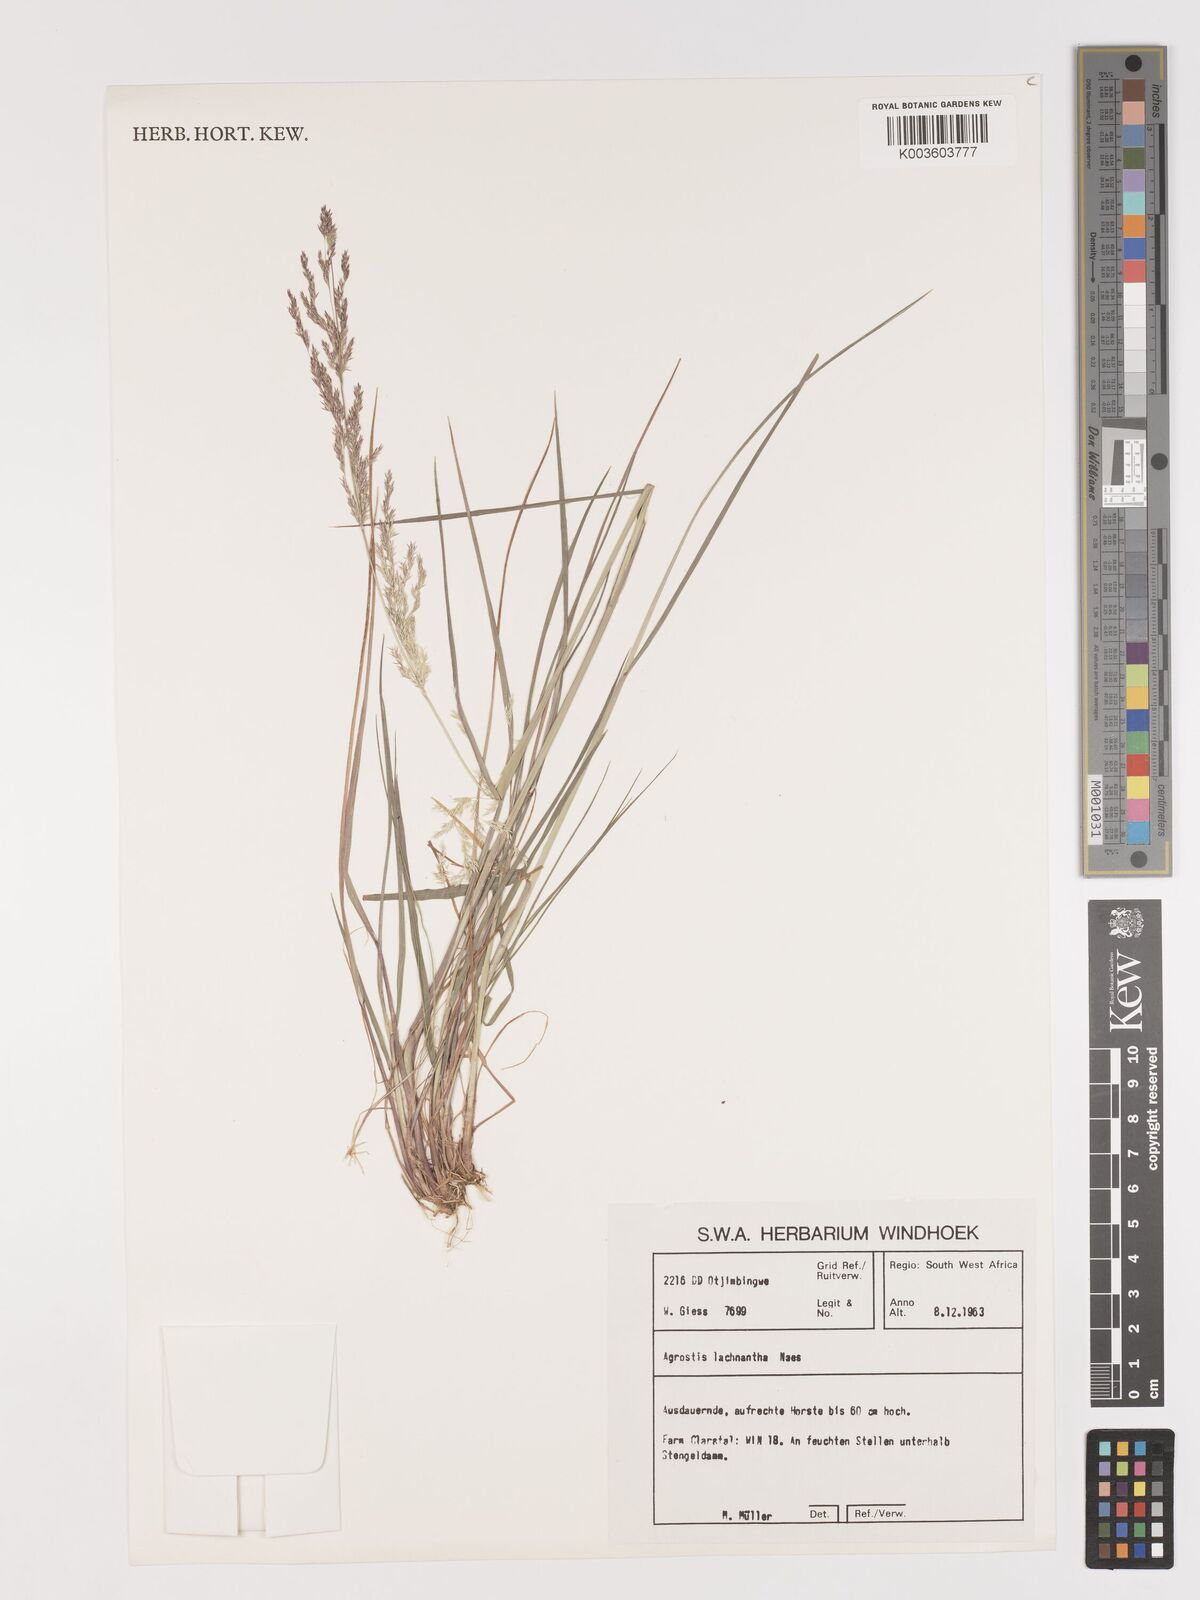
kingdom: Plantae
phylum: Tracheophyta
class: Liliopsida
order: Poales
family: Poaceae
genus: Lachnagrostis
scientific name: Lachnagrostis lachnantha
